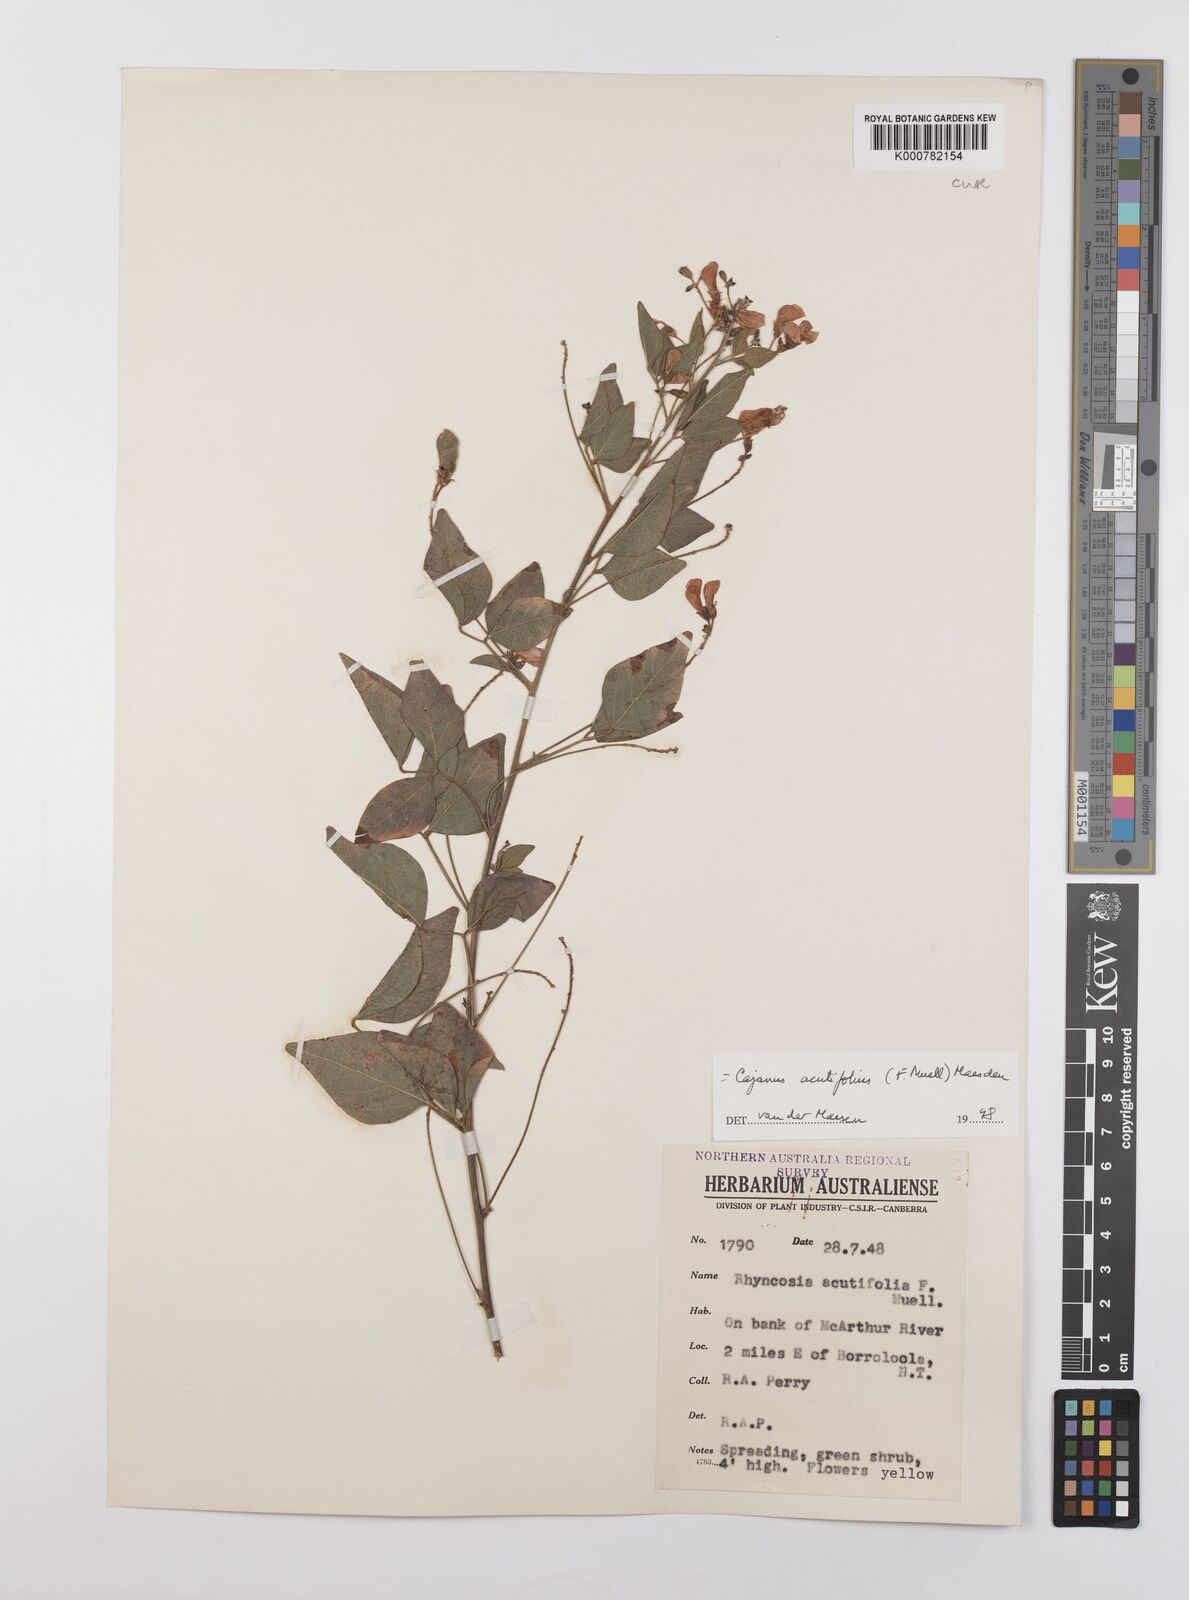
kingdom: Plantae
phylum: Tracheophyta
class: Magnoliopsida
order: Fabales
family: Fabaceae
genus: Cajanus
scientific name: Cajanus acutifolius
